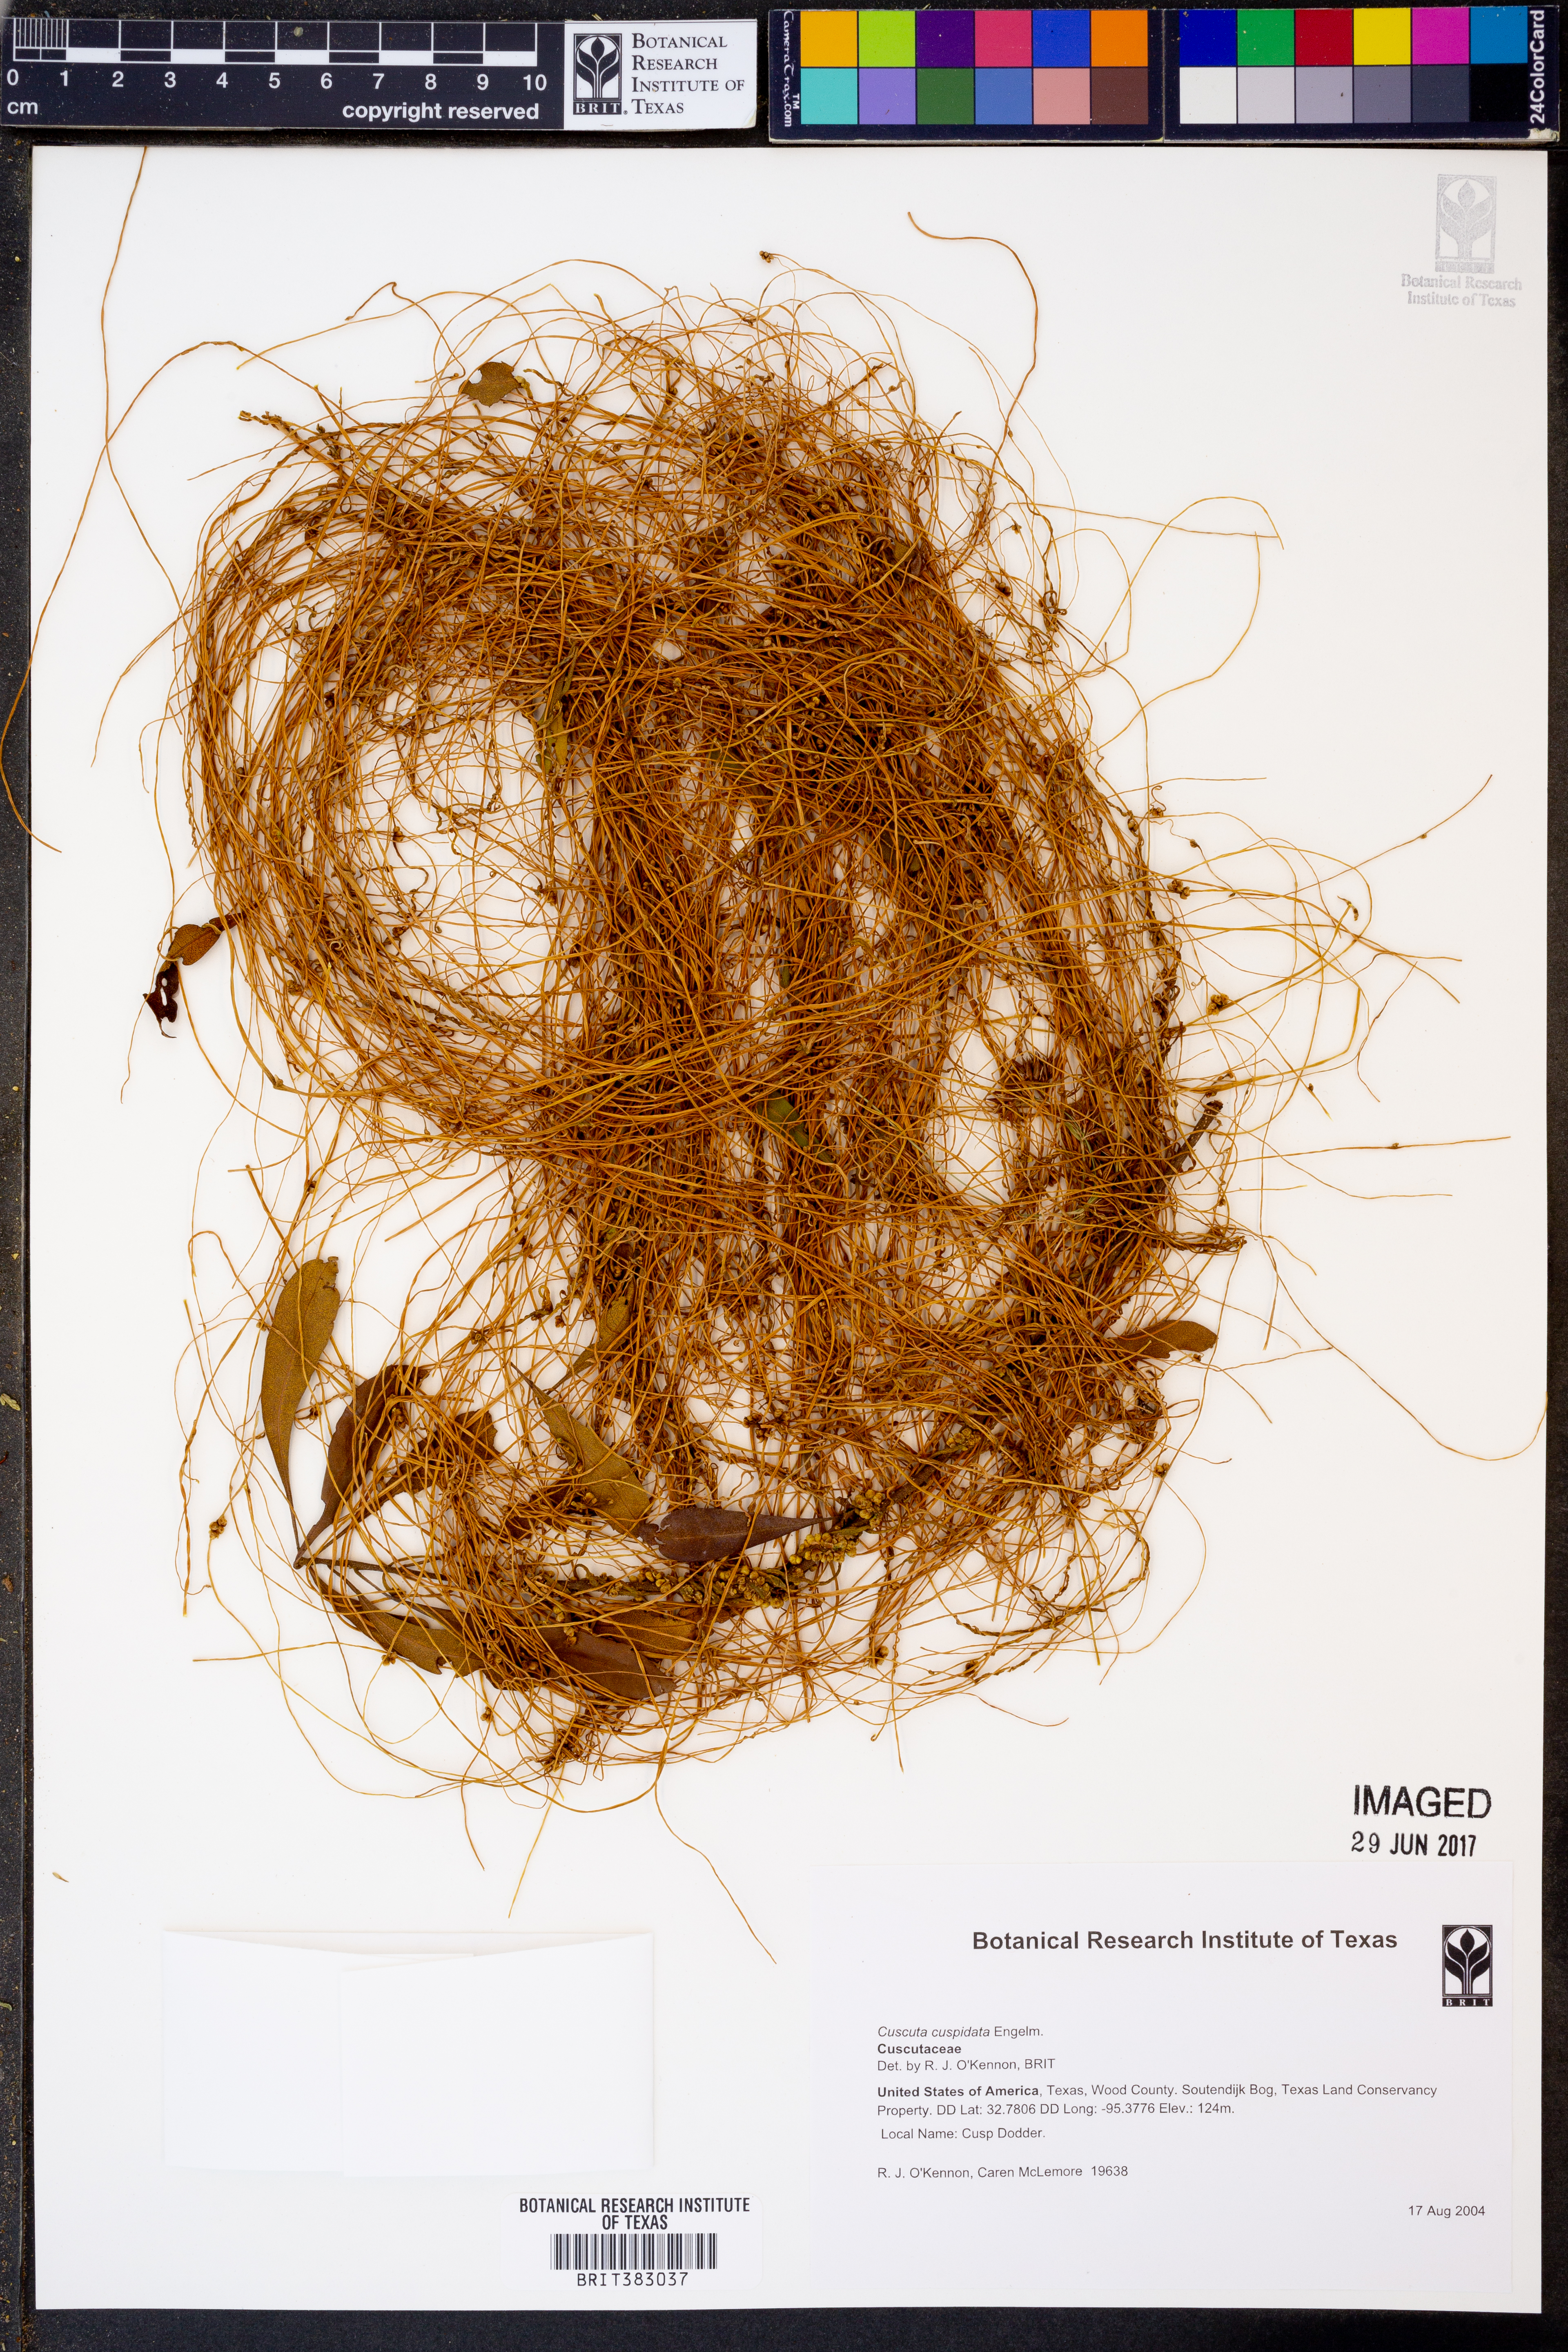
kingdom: Plantae
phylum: Tracheophyta
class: Magnoliopsida
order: Solanales
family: Convolvulaceae
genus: Cuscuta
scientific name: Cuscuta cuspidata
